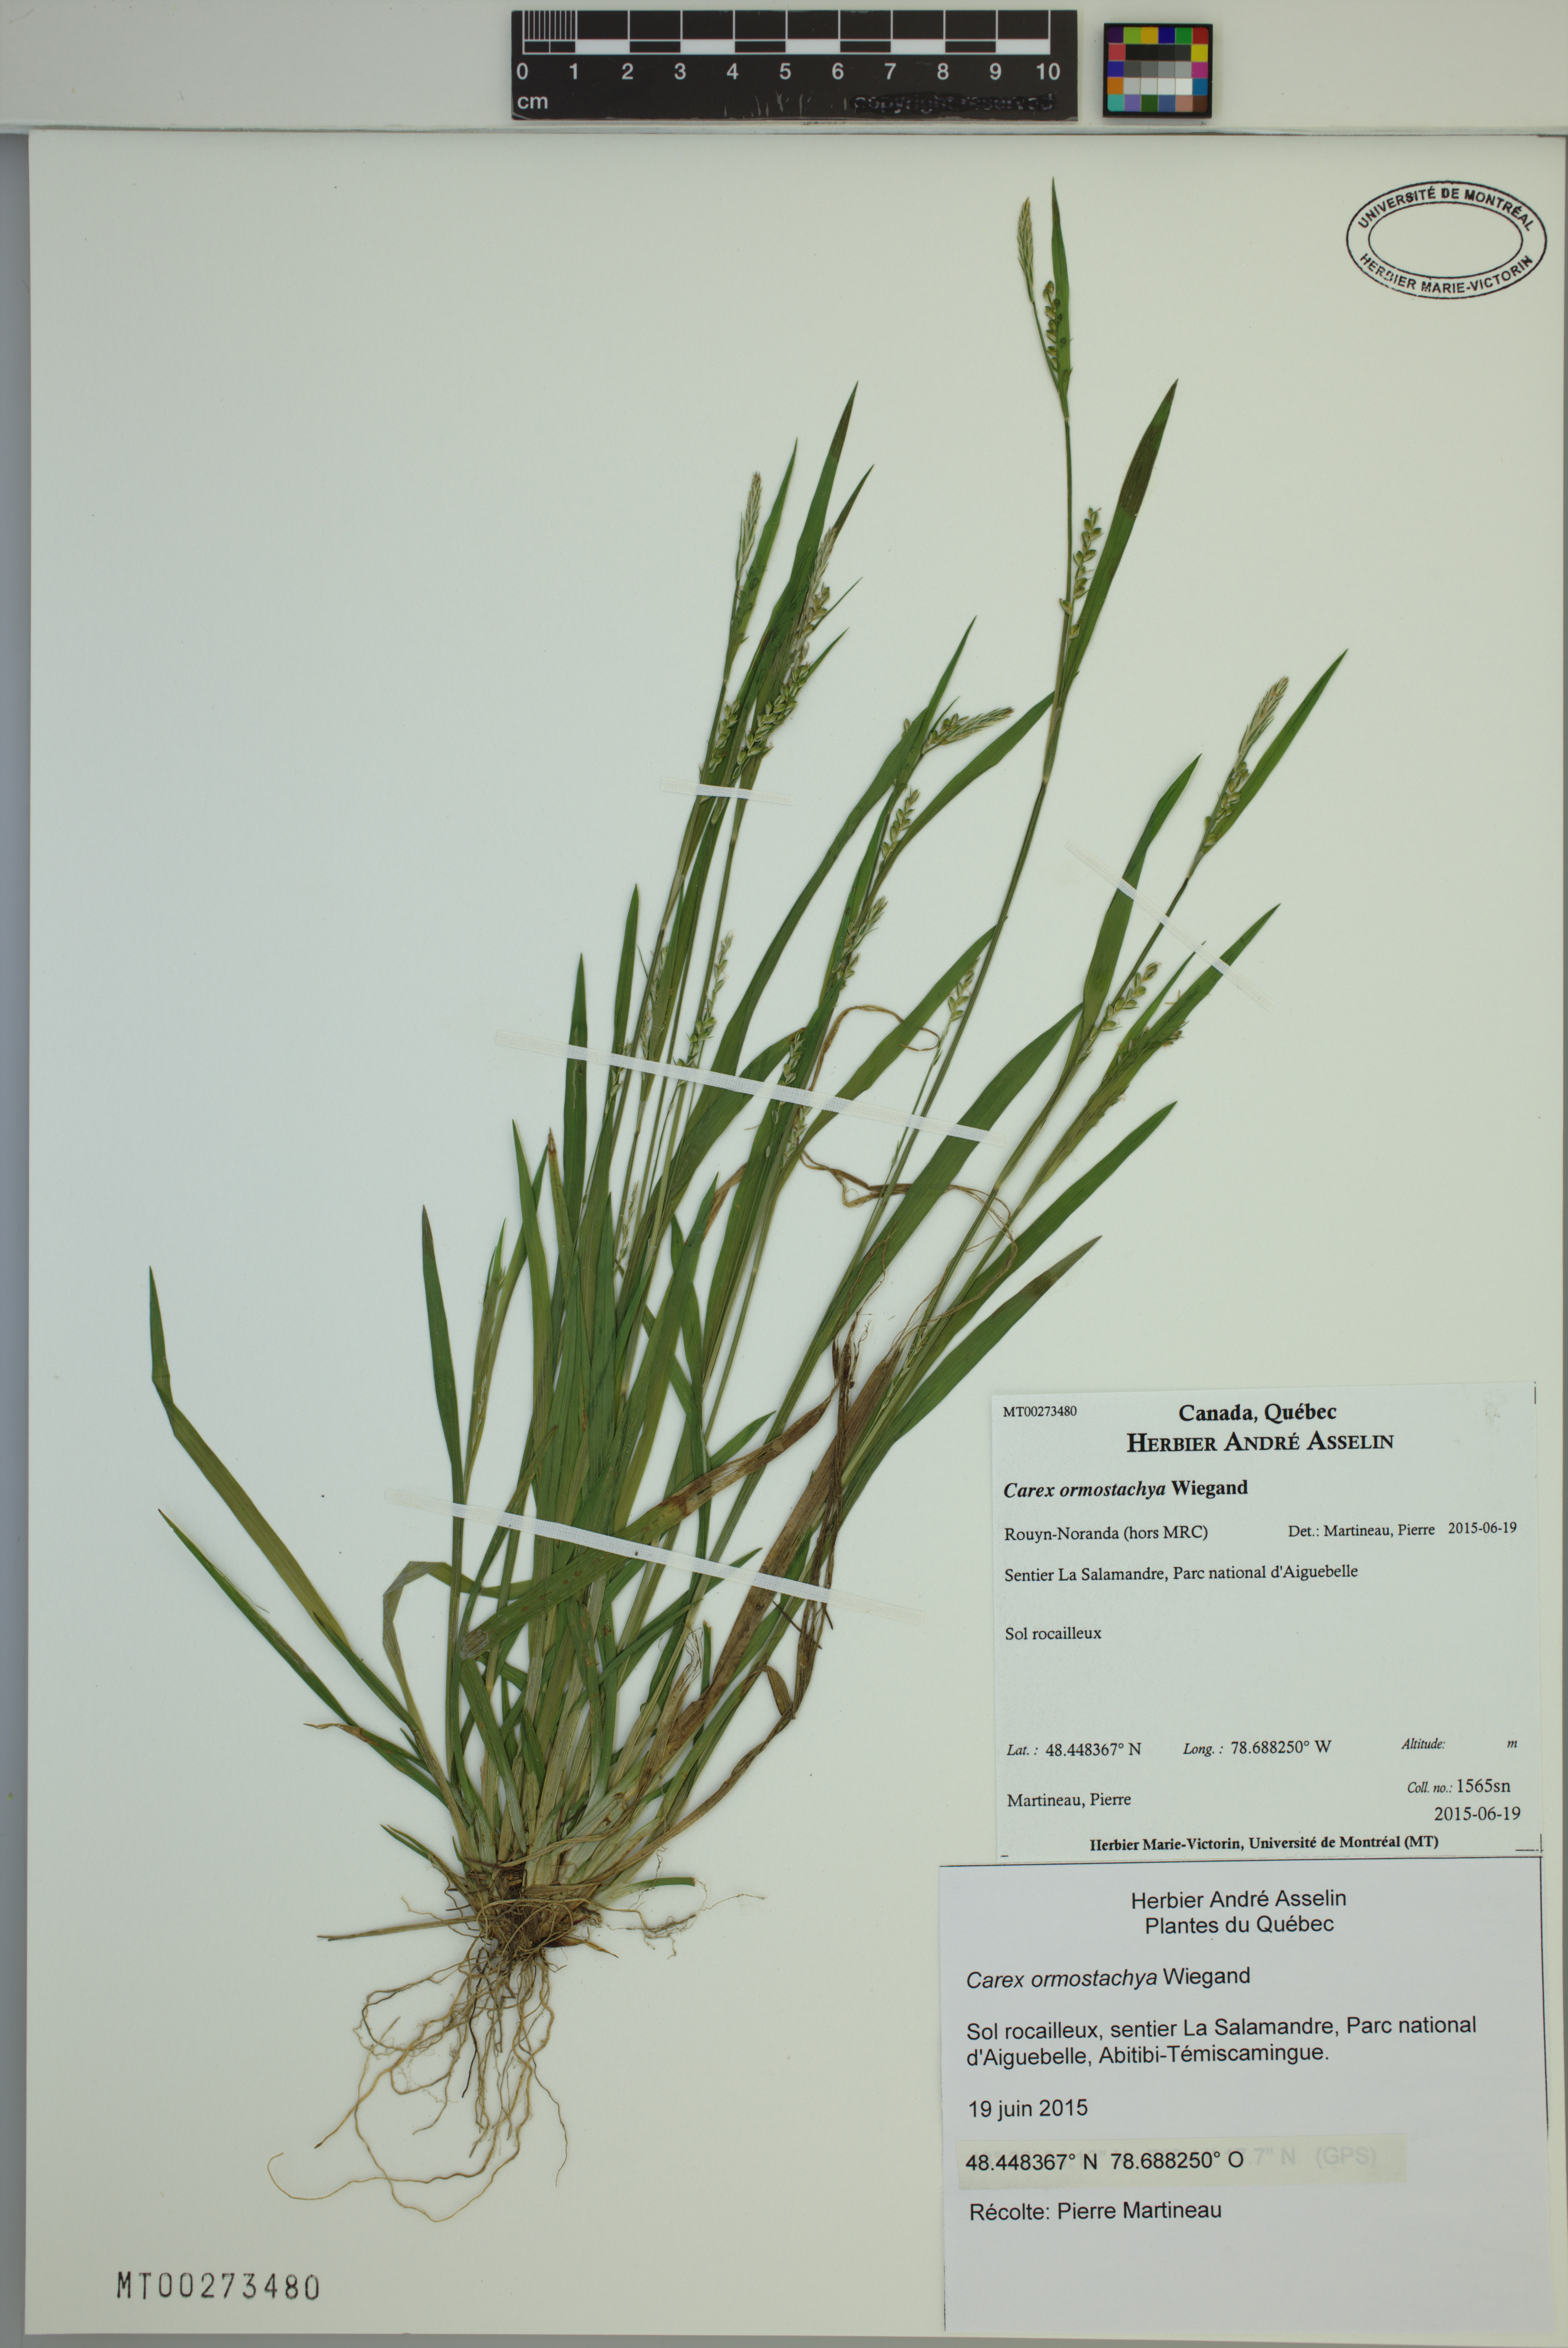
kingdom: Plantae
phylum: Tracheophyta
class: Liliopsida
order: Poales
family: Cyperaceae
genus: Carex
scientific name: Carex ormostachya
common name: Necklace spike sedge
